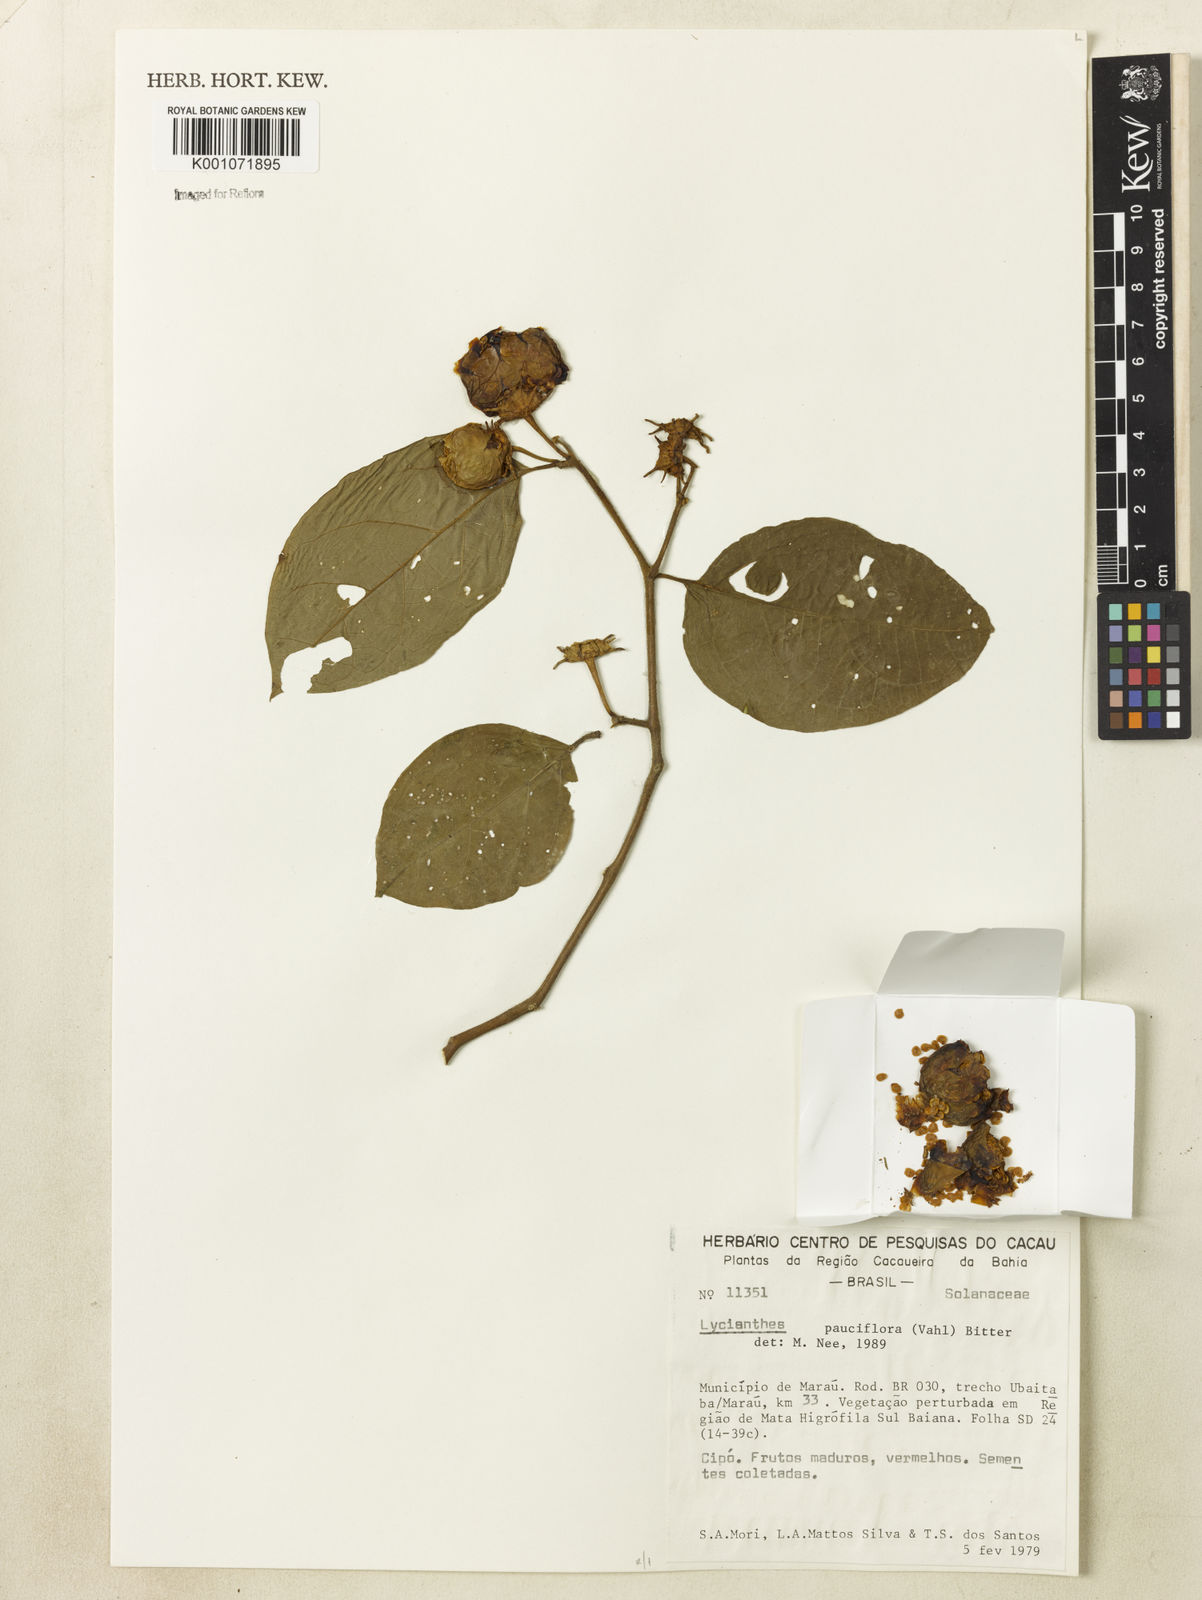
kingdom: Plantae
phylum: Tracheophyta
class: Magnoliopsida
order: Solanales
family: Solanaceae
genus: Lycianthes
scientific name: Lycianthes pauciflora
